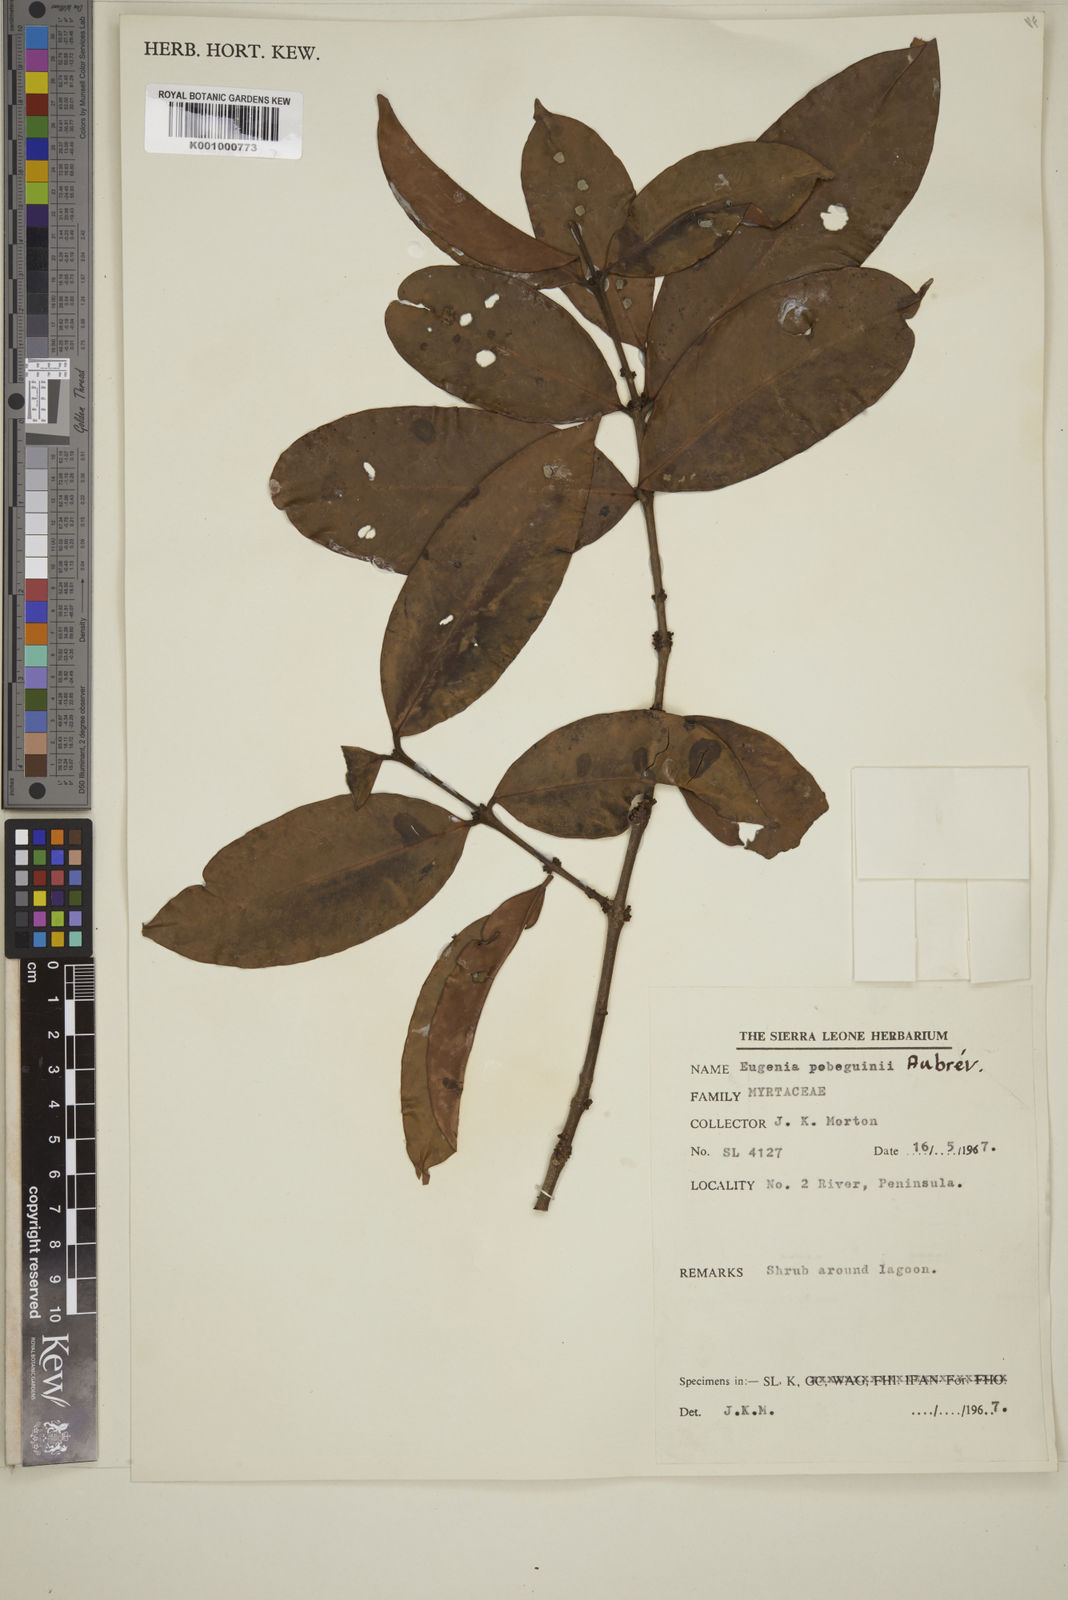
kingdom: Plantae
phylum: Tracheophyta
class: Magnoliopsida
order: Myrtales
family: Myrtaceae
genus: Eugenia
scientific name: Eugenia
